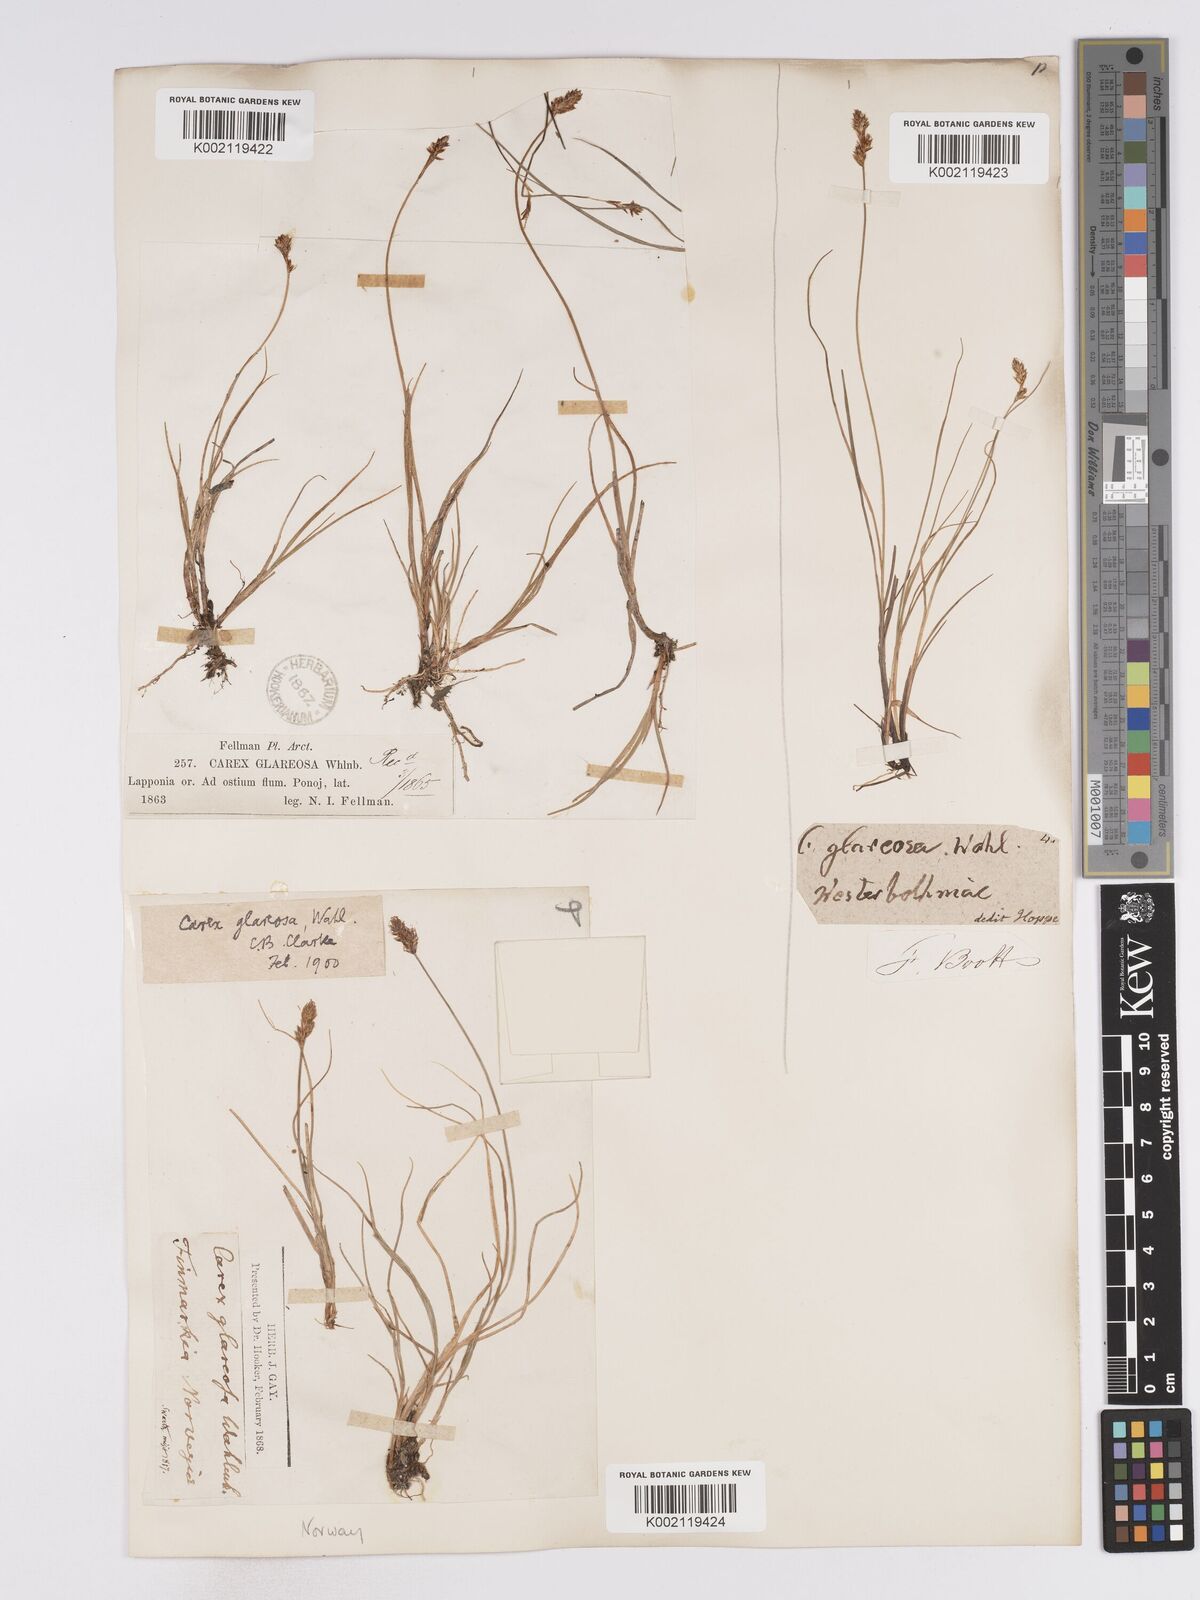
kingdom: Plantae
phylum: Tracheophyta
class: Liliopsida
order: Poales
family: Cyperaceae
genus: Carex
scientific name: Carex glareosa
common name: Clustered sedge
